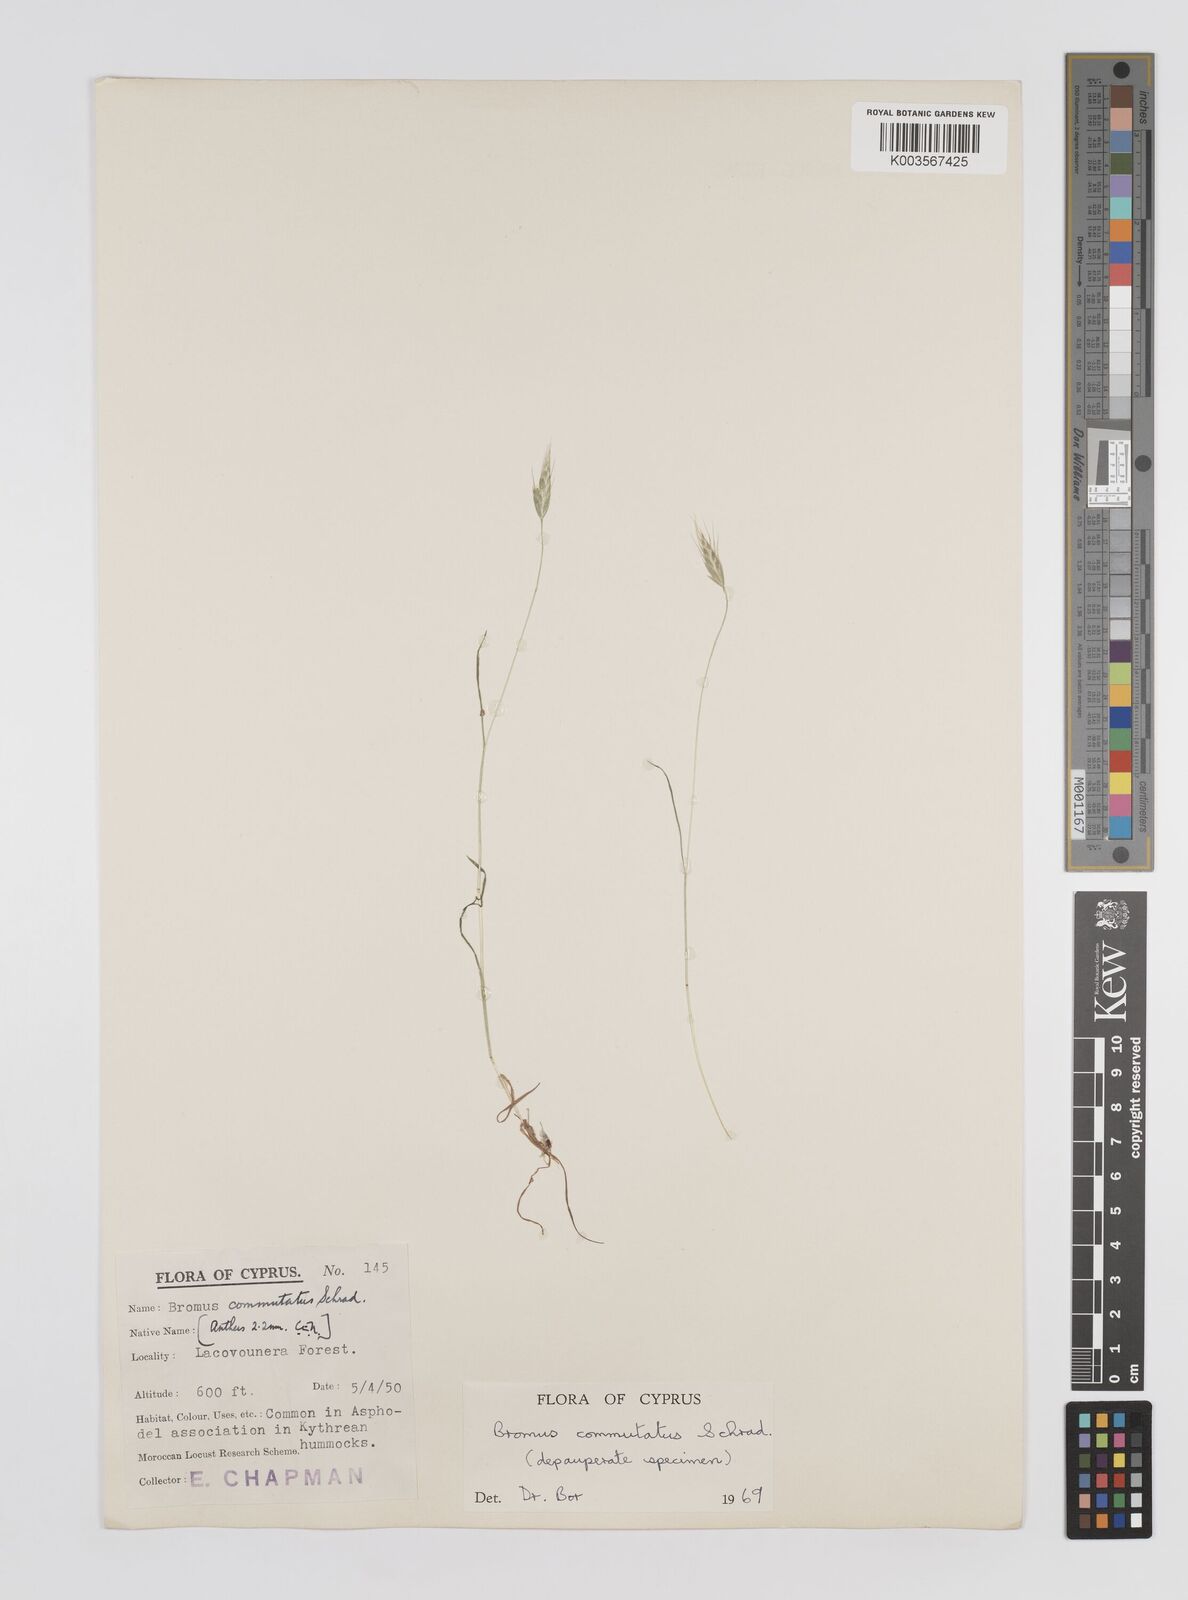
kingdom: Plantae
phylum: Tracheophyta
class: Liliopsida
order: Poales
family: Poaceae
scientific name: Poaceae
